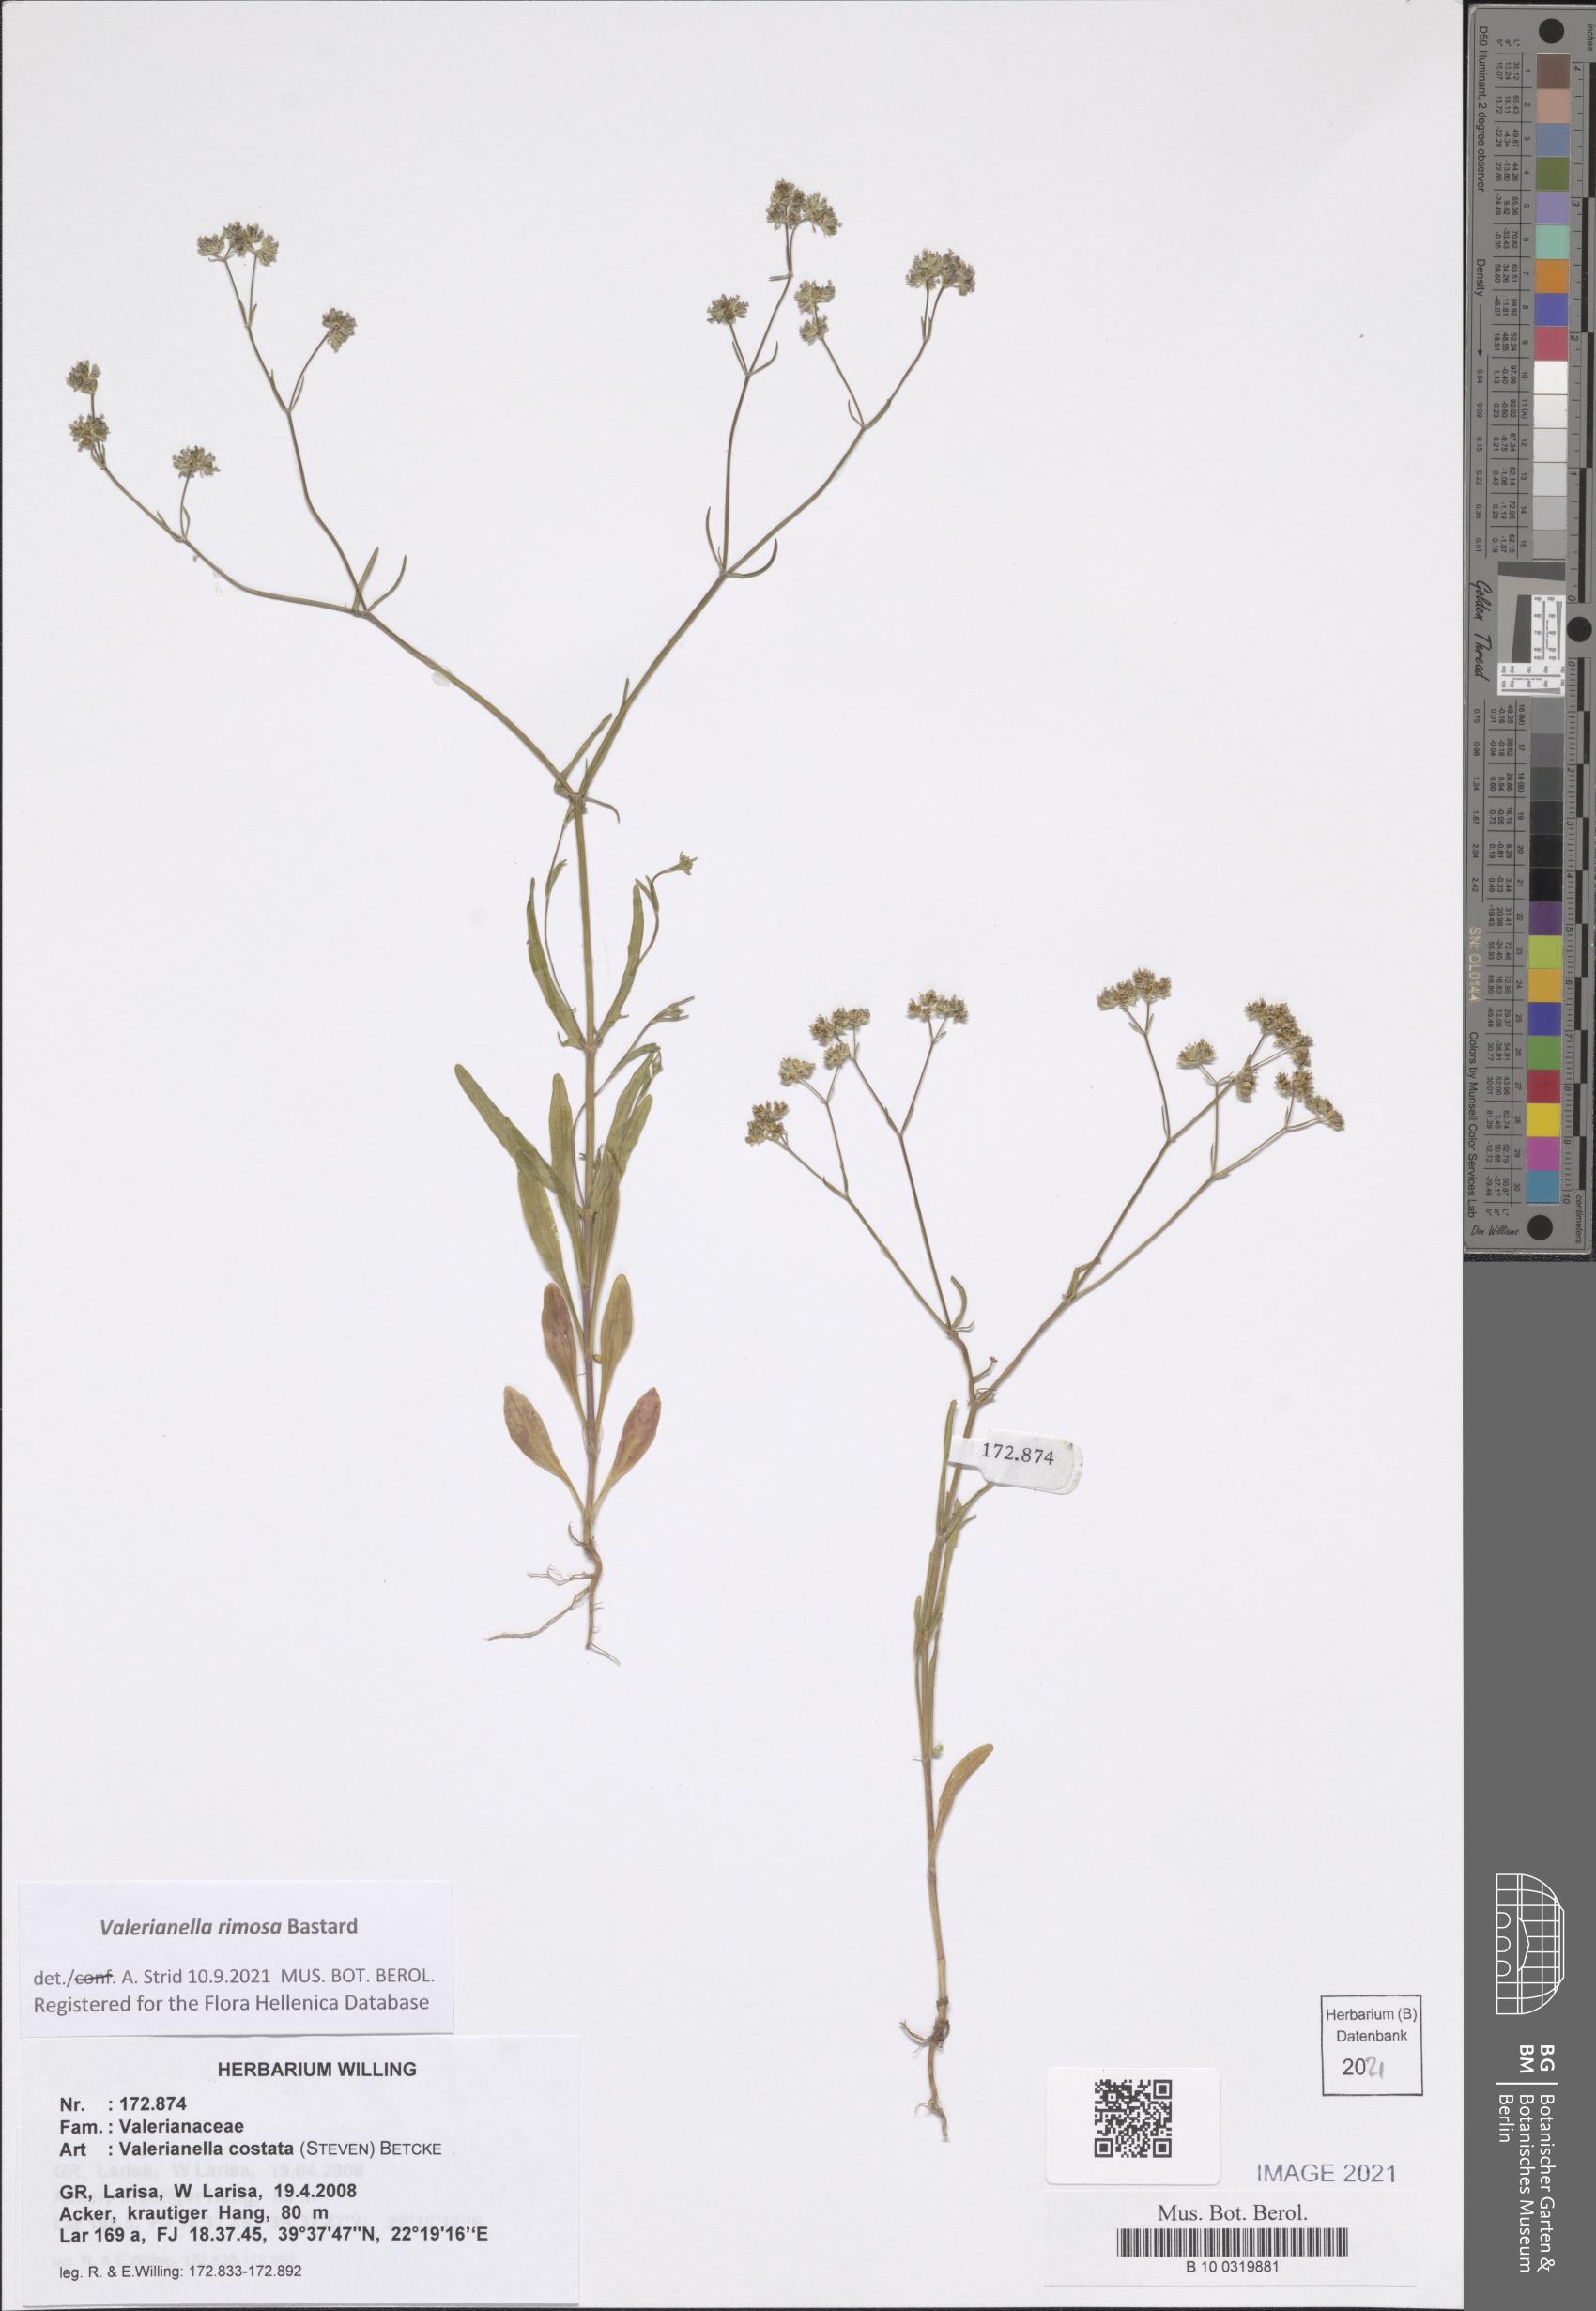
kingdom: Plantae
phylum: Tracheophyta
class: Magnoliopsida
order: Dipsacales
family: Caprifoliaceae
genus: Valerianella
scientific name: Valerianella rimosa
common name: Broad-fruited cornsalad
